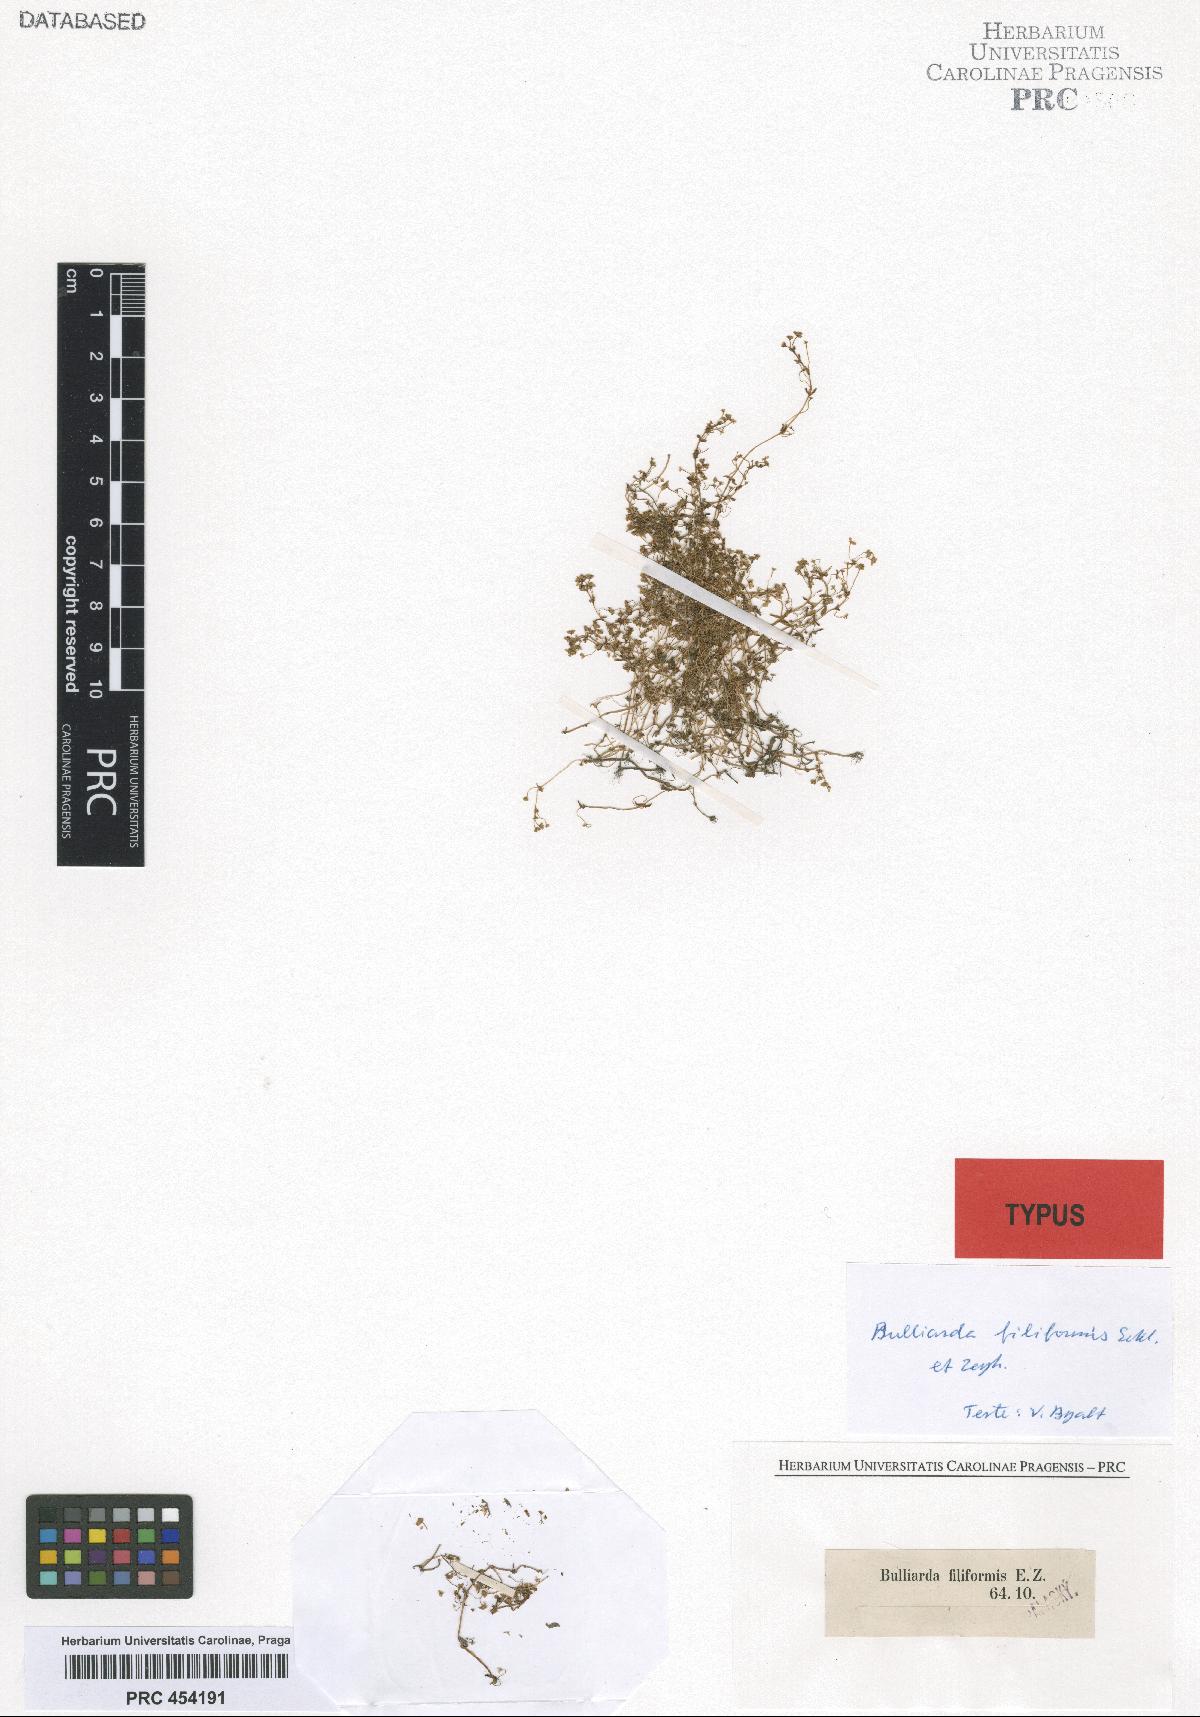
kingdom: Plantae
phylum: Tracheophyta
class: Magnoliopsida
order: Saxifragales
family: Crassulaceae
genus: Crassula
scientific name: Crassula natans
